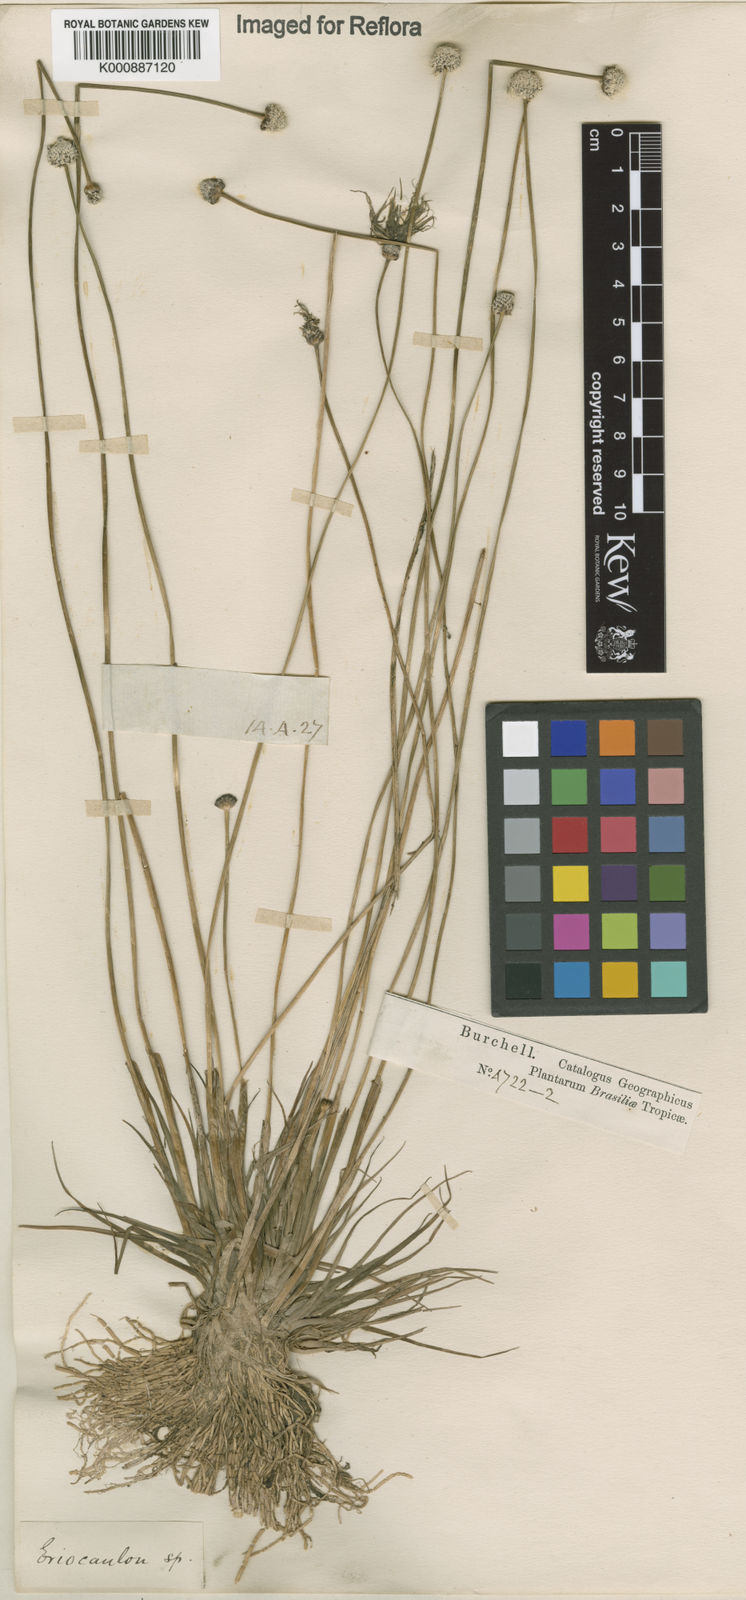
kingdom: Plantae
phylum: Tracheophyta
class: Liliopsida
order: Poales
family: Eriocaulaceae
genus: Eriocaulon
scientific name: Eriocaulon
